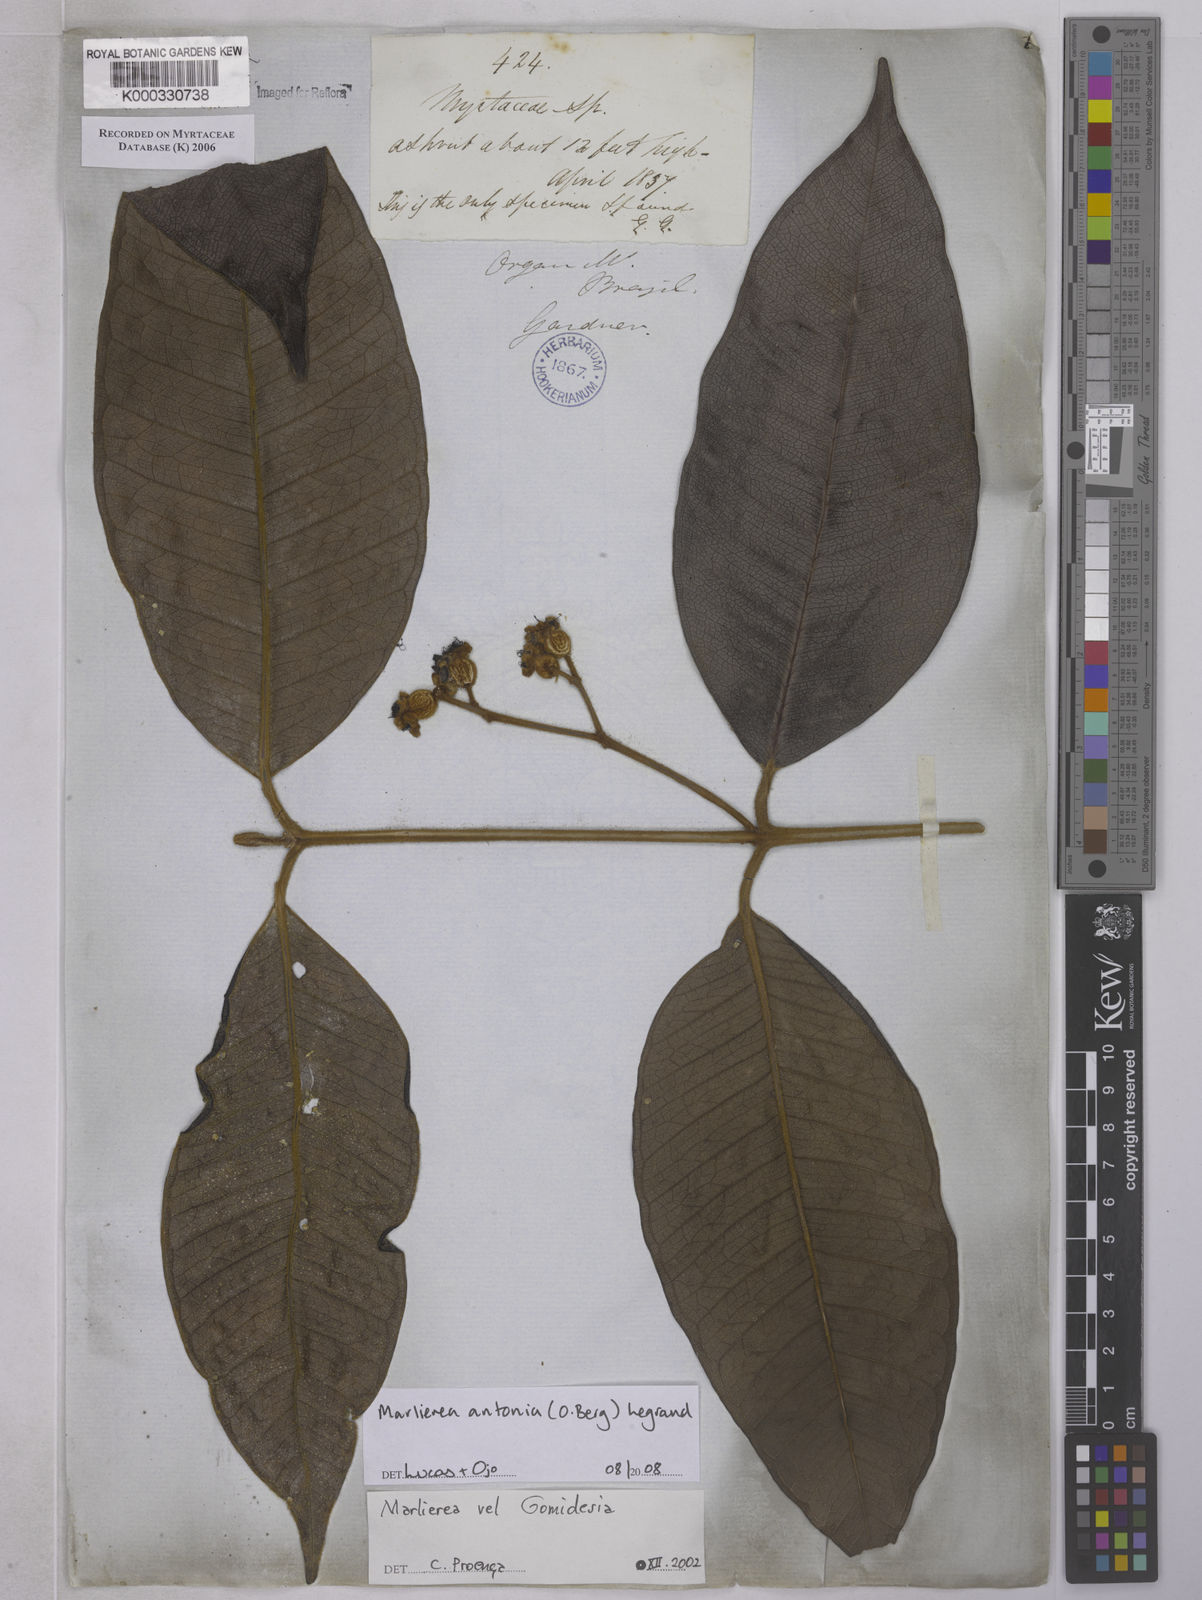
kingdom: Plantae
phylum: Tracheophyta
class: Magnoliopsida
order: Myrtales
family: Myrtaceae
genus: Marlierea
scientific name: Marlierea
